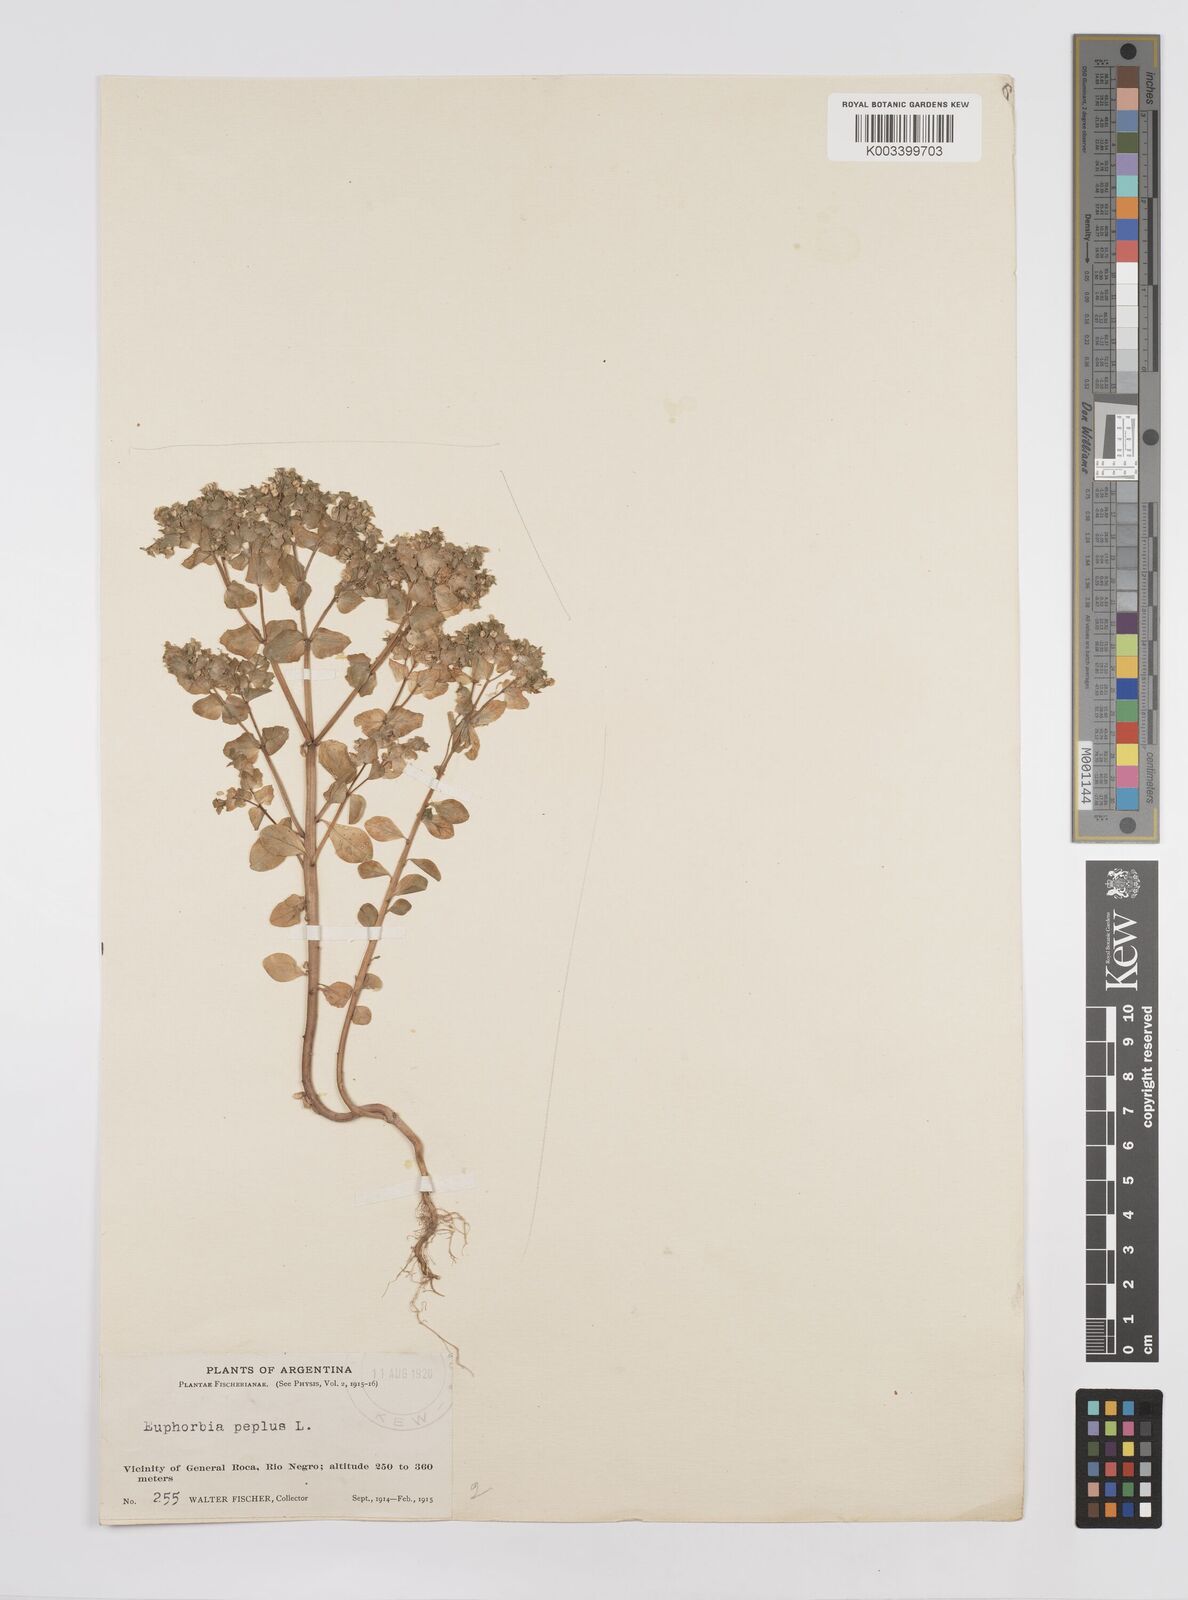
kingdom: Plantae
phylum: Tracheophyta
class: Magnoliopsida
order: Malpighiales
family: Euphorbiaceae
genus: Euphorbia
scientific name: Euphorbia peplus
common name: Petty spurge
